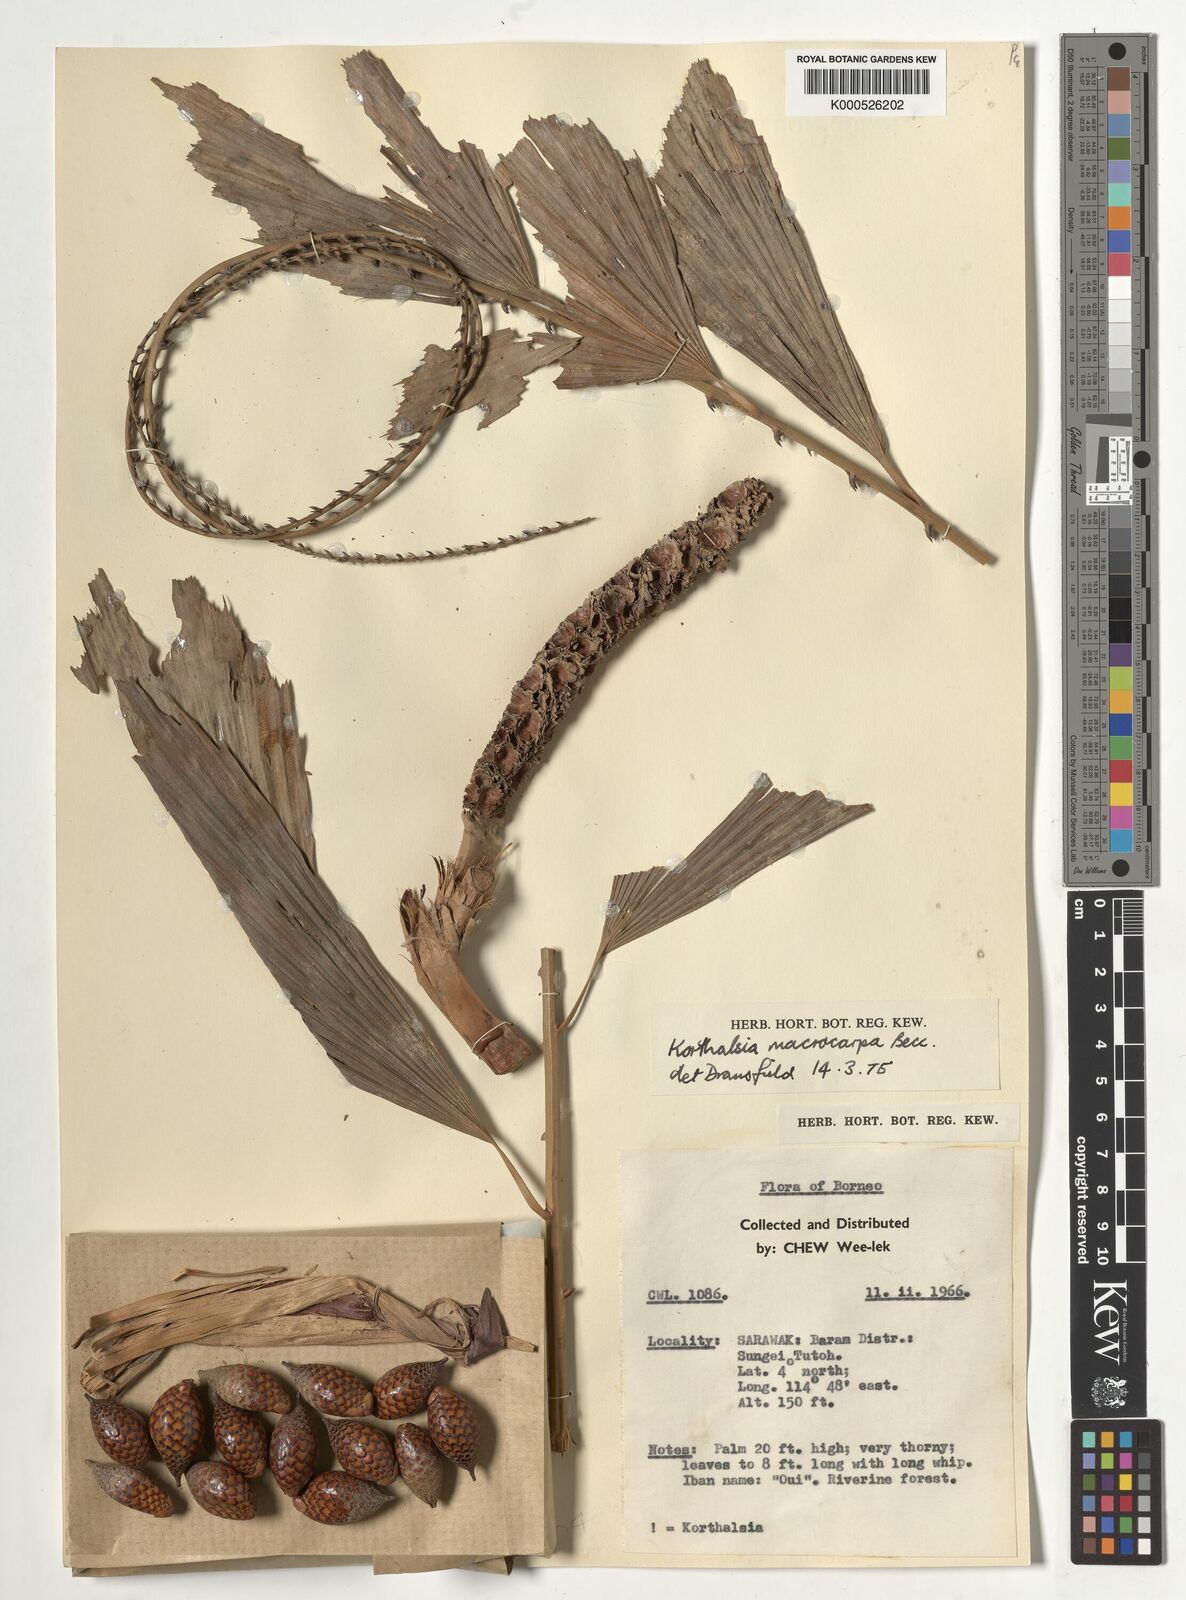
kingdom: Plantae
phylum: Tracheophyta
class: Liliopsida
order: Arecales
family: Arecaceae
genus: Korthalsia
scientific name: Korthalsia robusta
